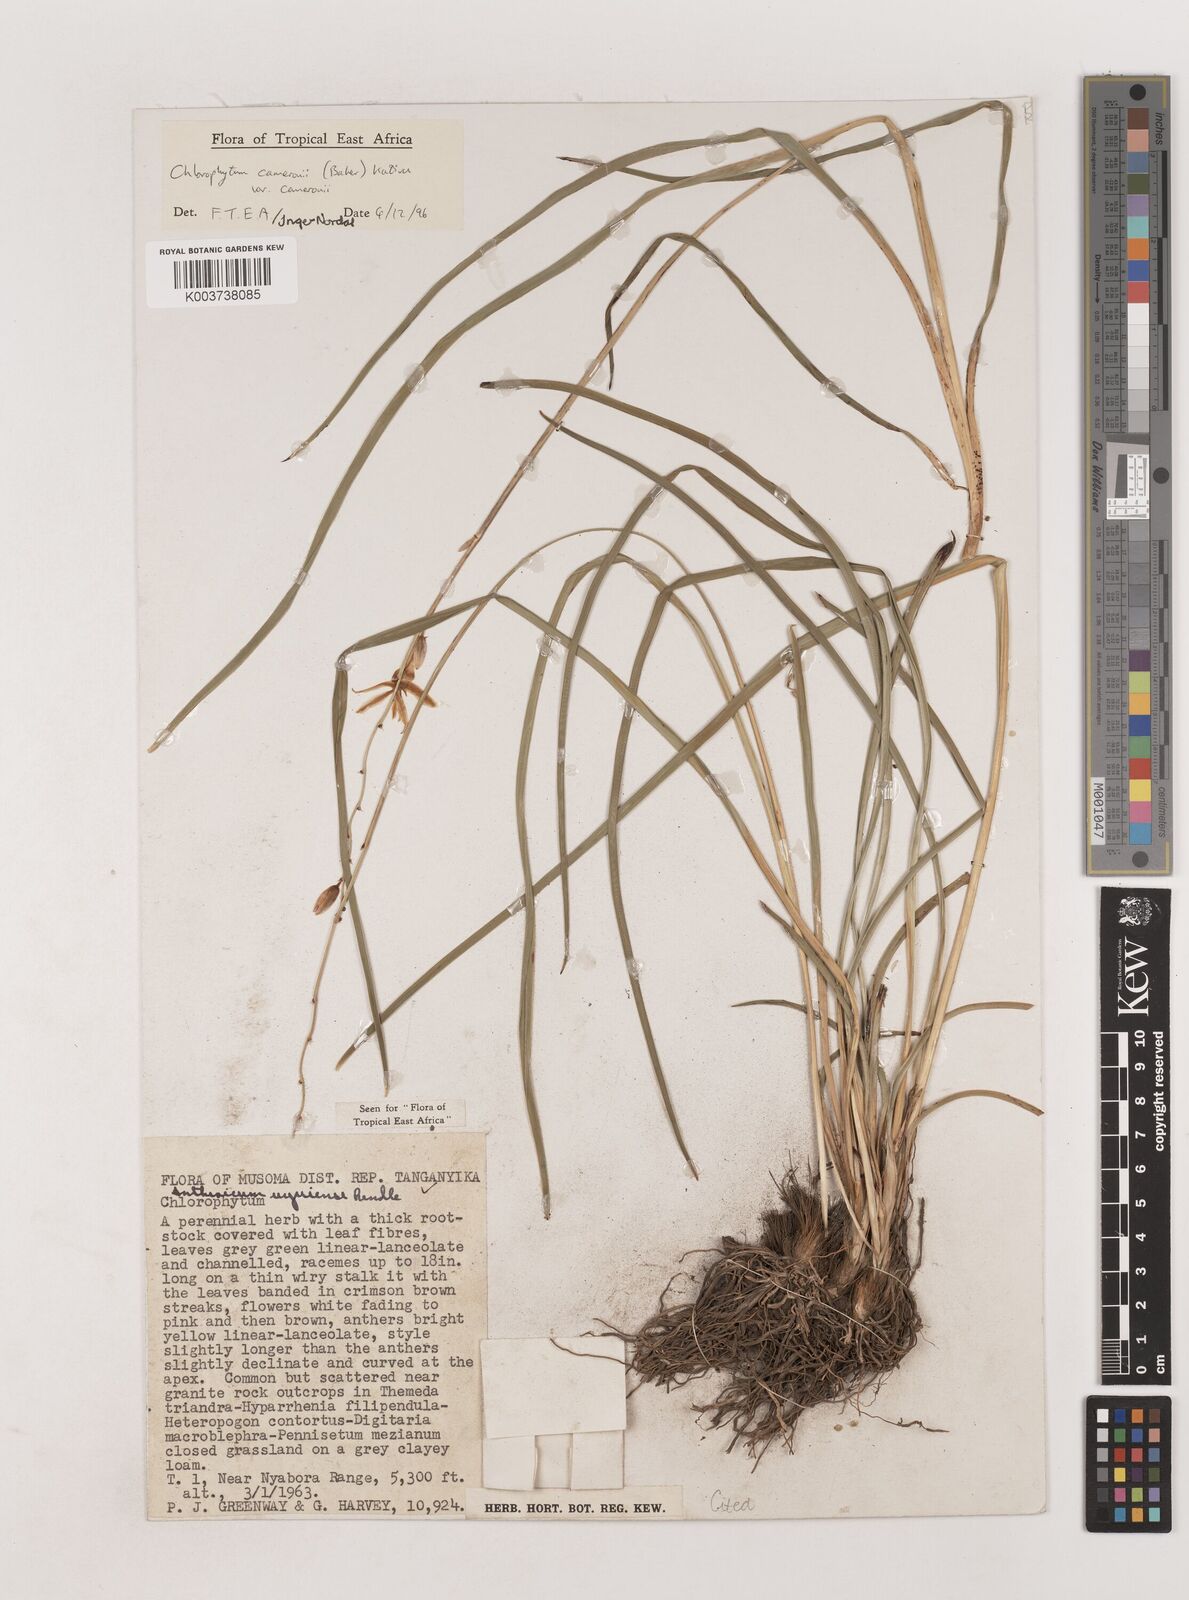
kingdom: Plantae
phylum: Tracheophyta
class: Liliopsida
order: Asparagales
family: Asparagaceae
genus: Chlorophytum
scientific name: Chlorophytum cameronii
